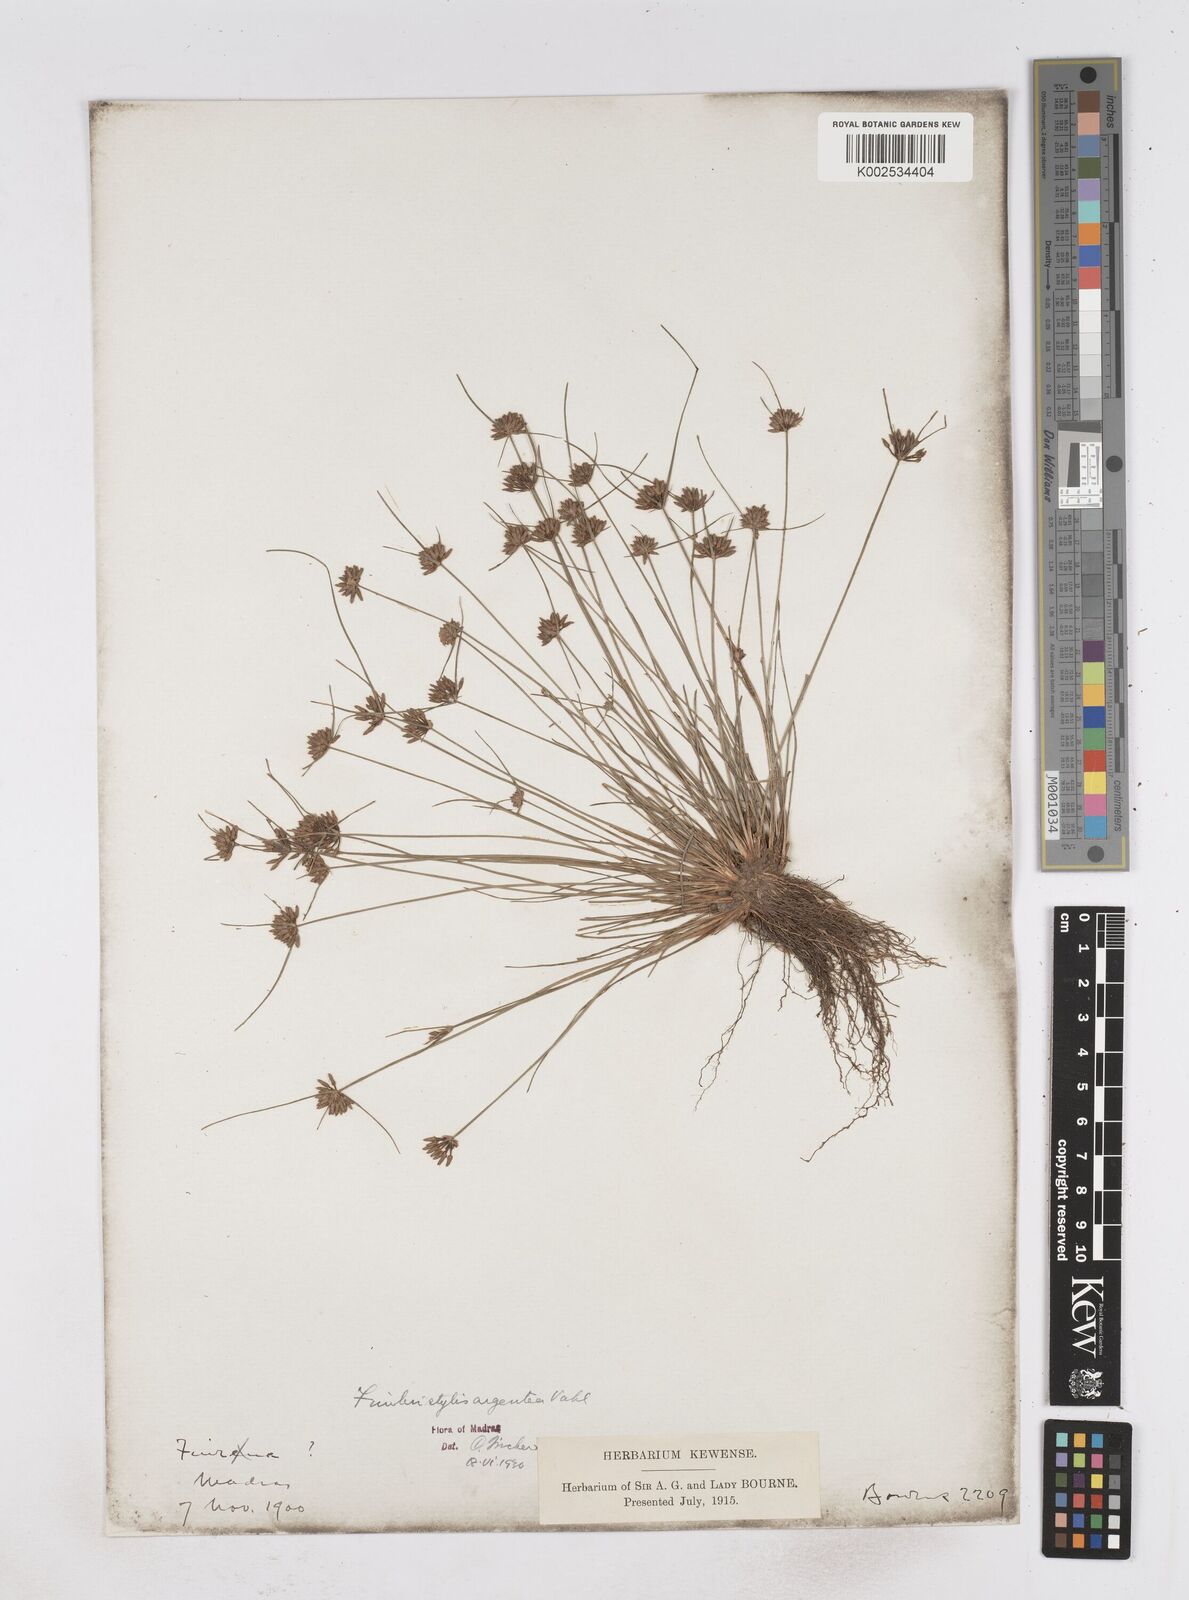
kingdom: Plantae
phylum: Tracheophyta
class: Liliopsida
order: Poales
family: Cyperaceae
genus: Fimbristylis
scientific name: Fimbristylis argentea
